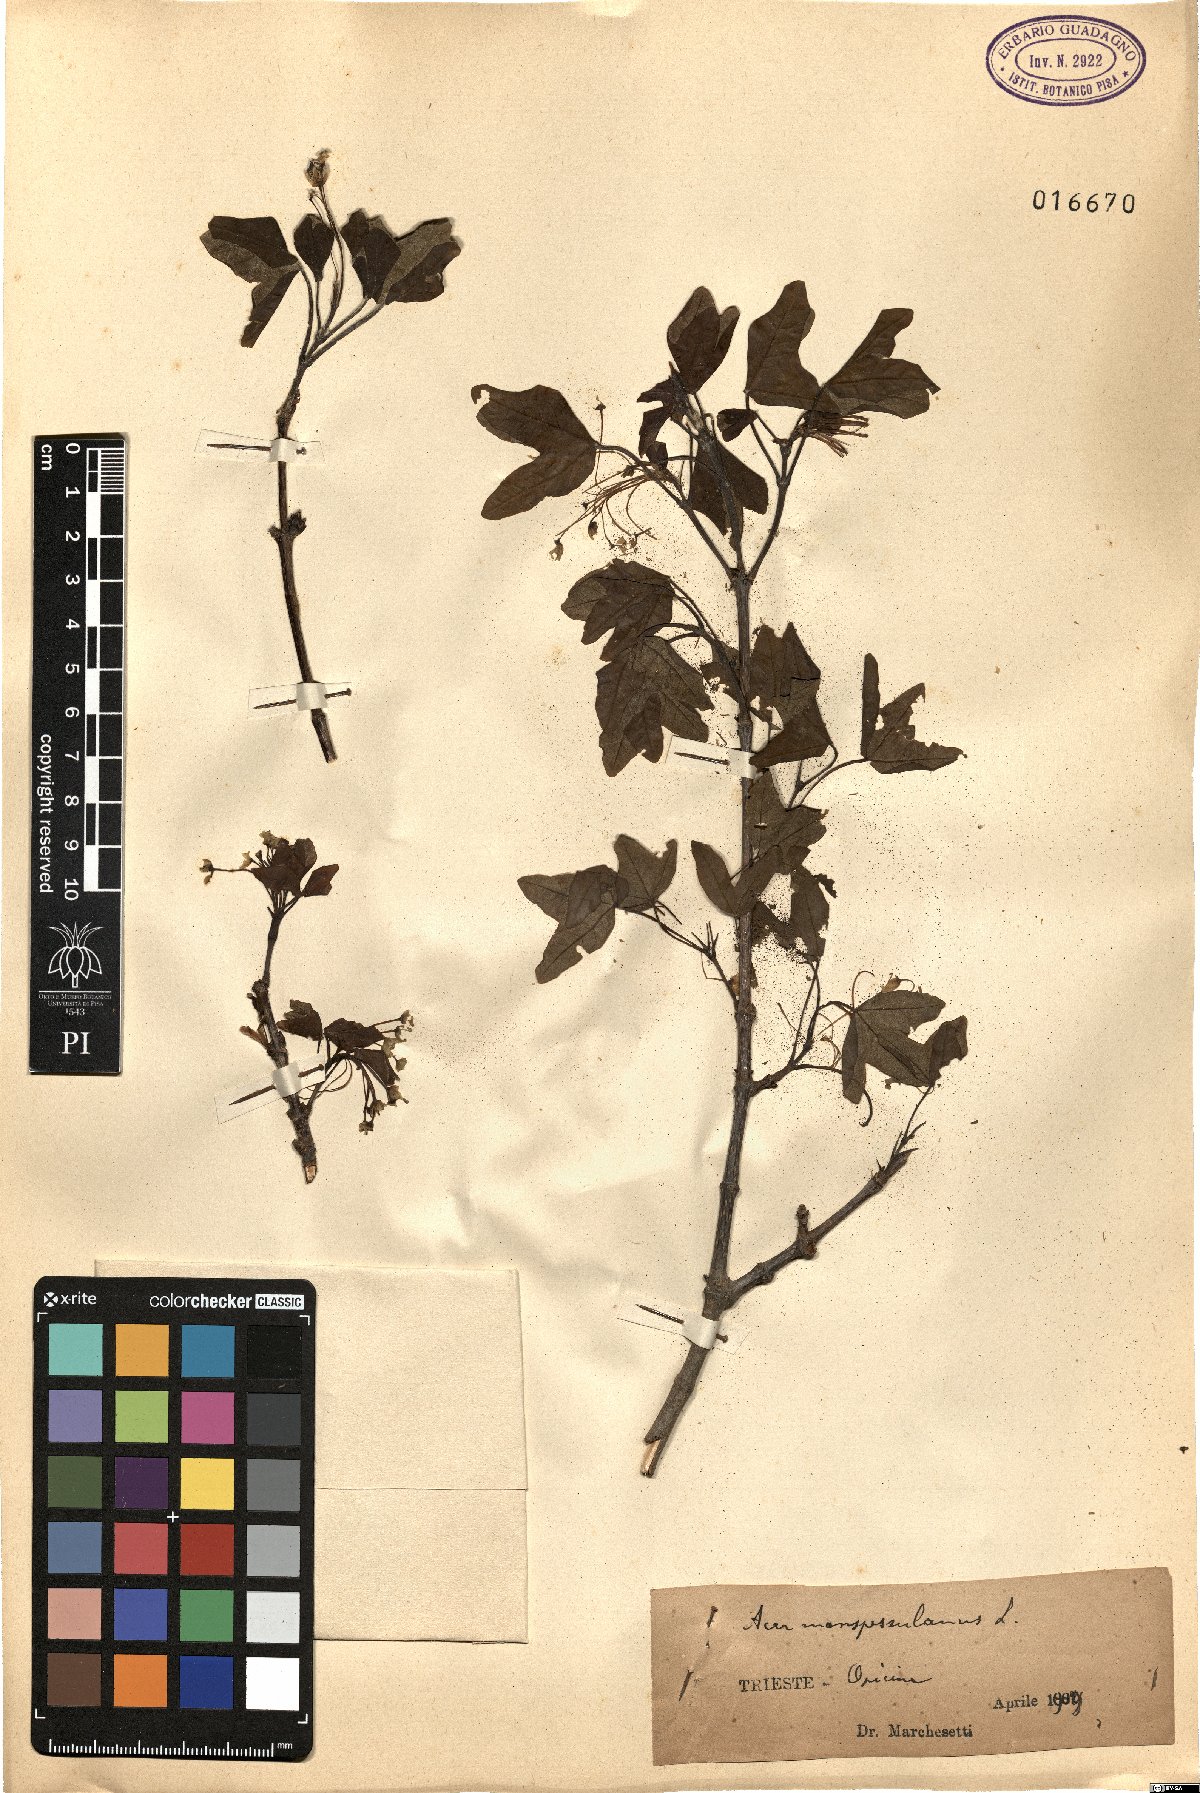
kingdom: Plantae
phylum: Tracheophyta
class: Magnoliopsida
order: Sapindales
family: Sapindaceae
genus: Acer
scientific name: Acer monspessulanum
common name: Montpellier maple
